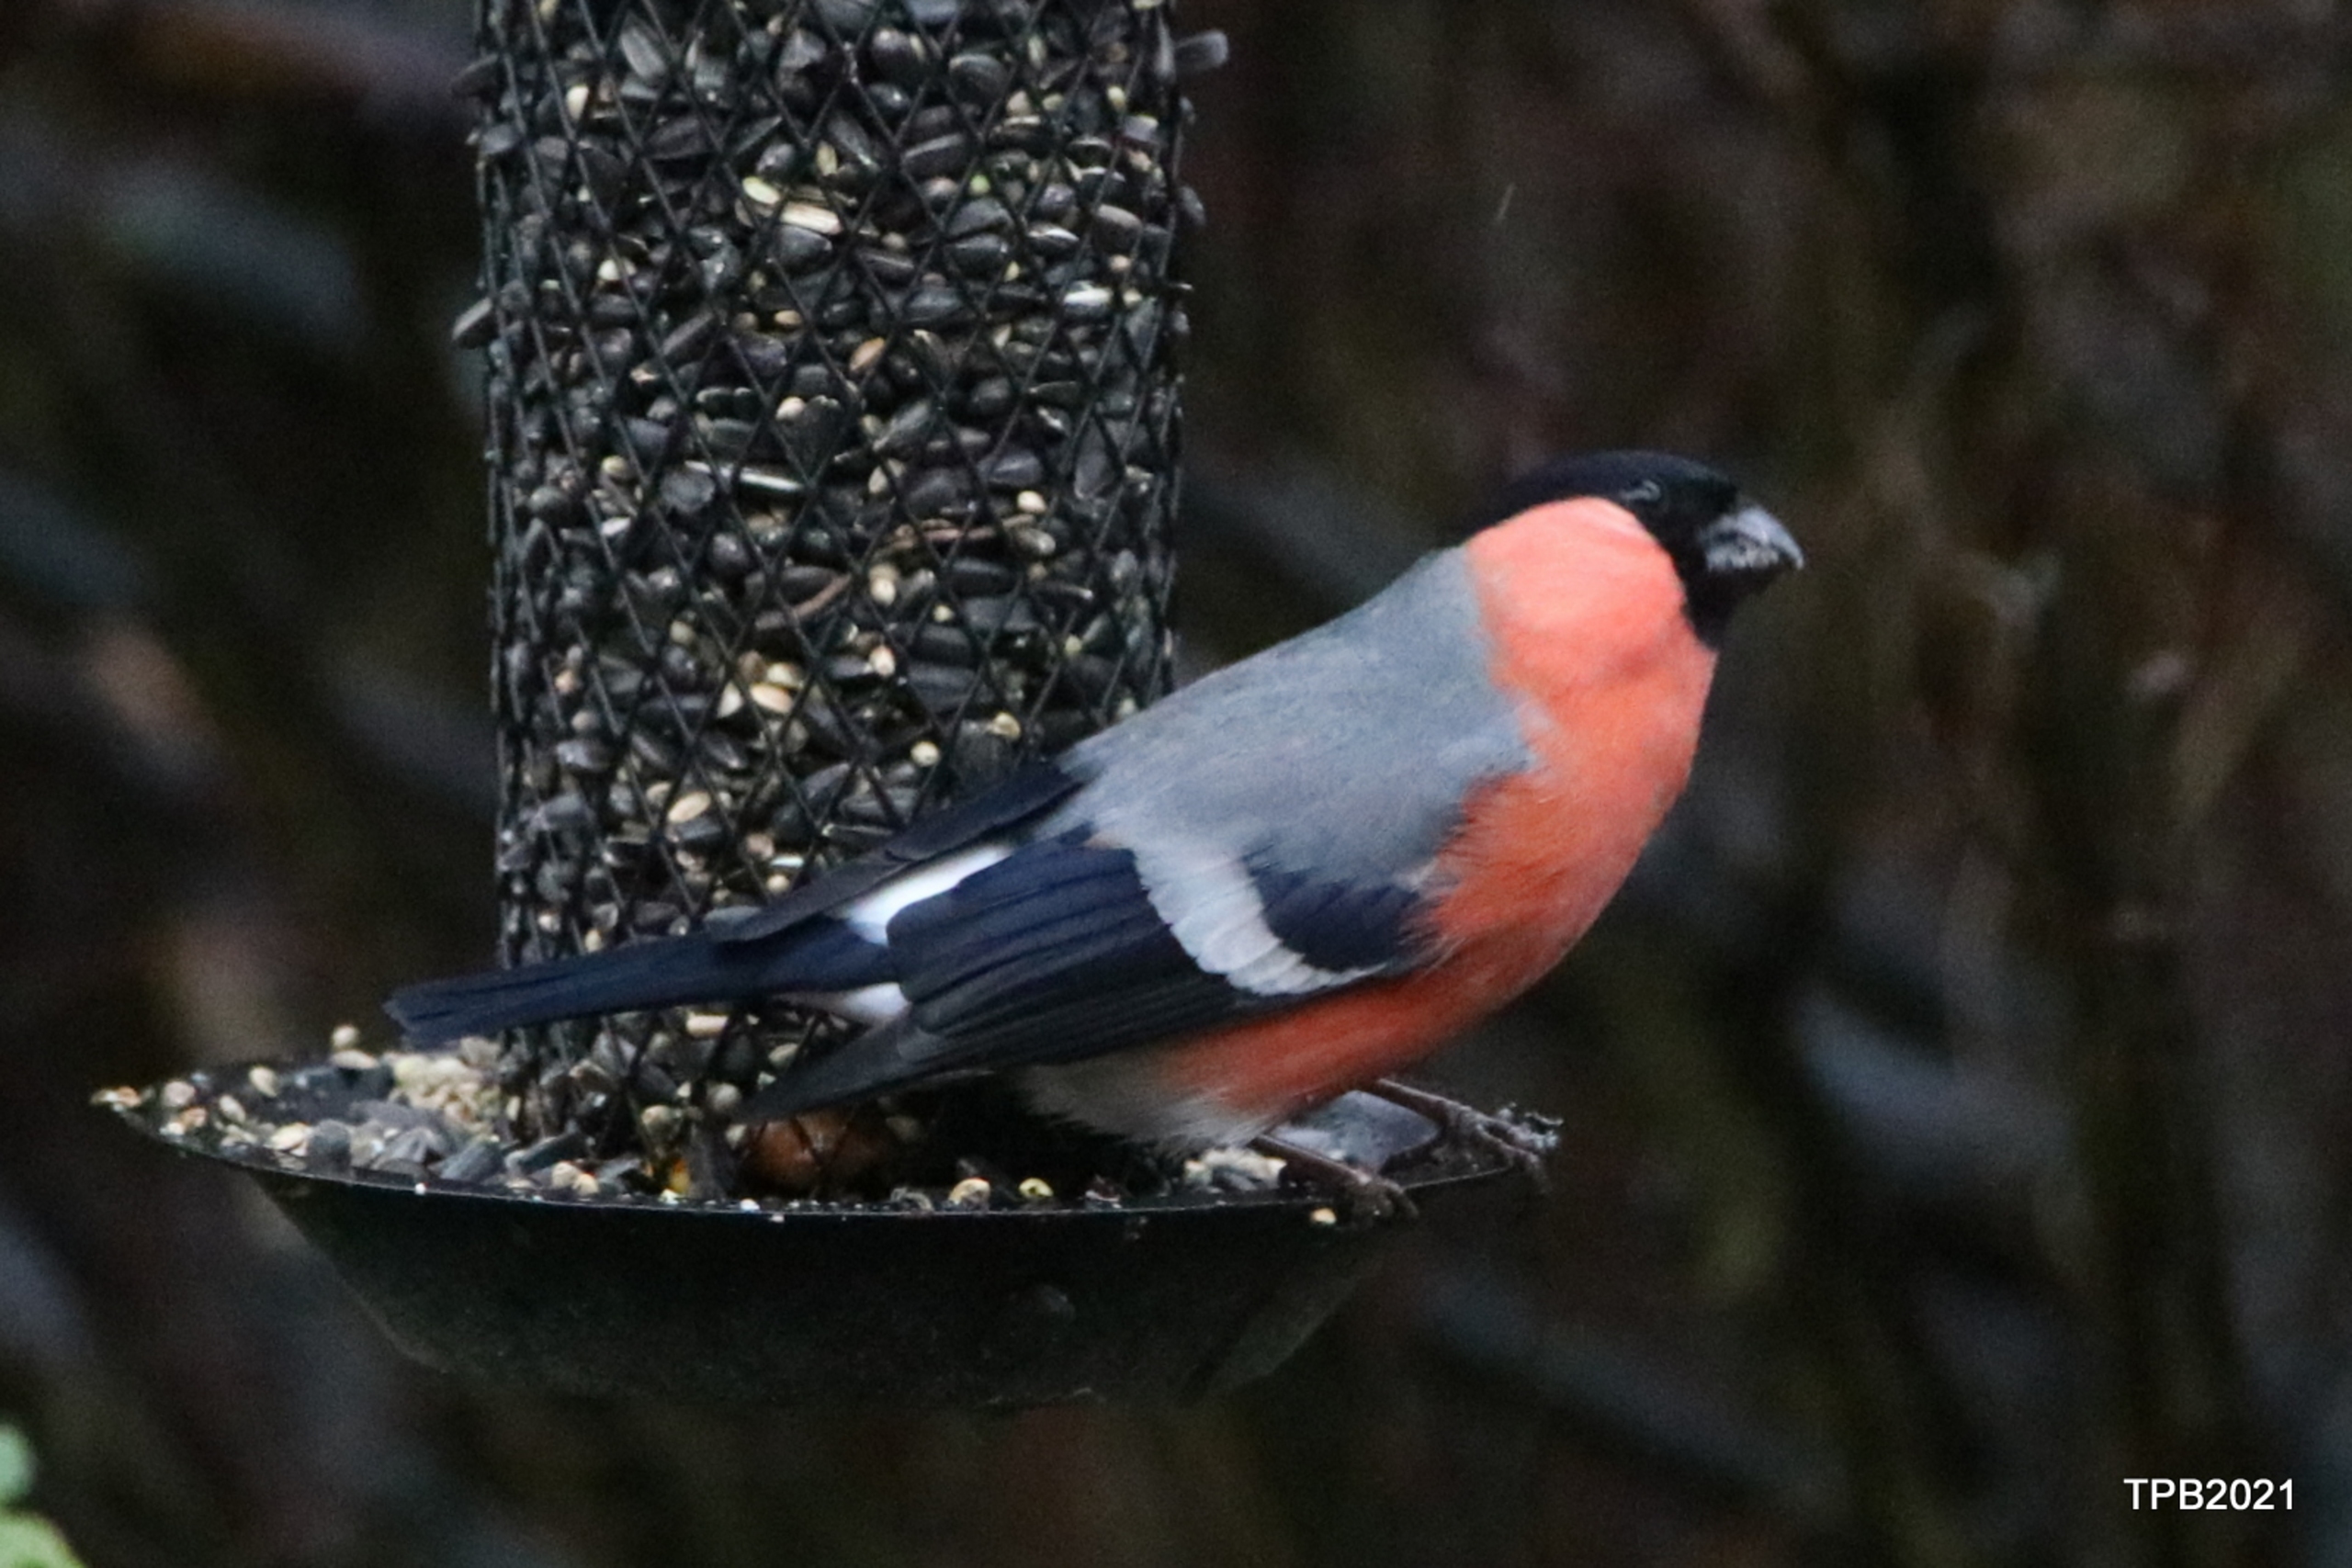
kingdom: Animalia
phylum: Chordata
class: Aves
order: Passeriformes
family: Fringillidae
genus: Pyrrhula
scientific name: Pyrrhula pyrrhula
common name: Dompap
